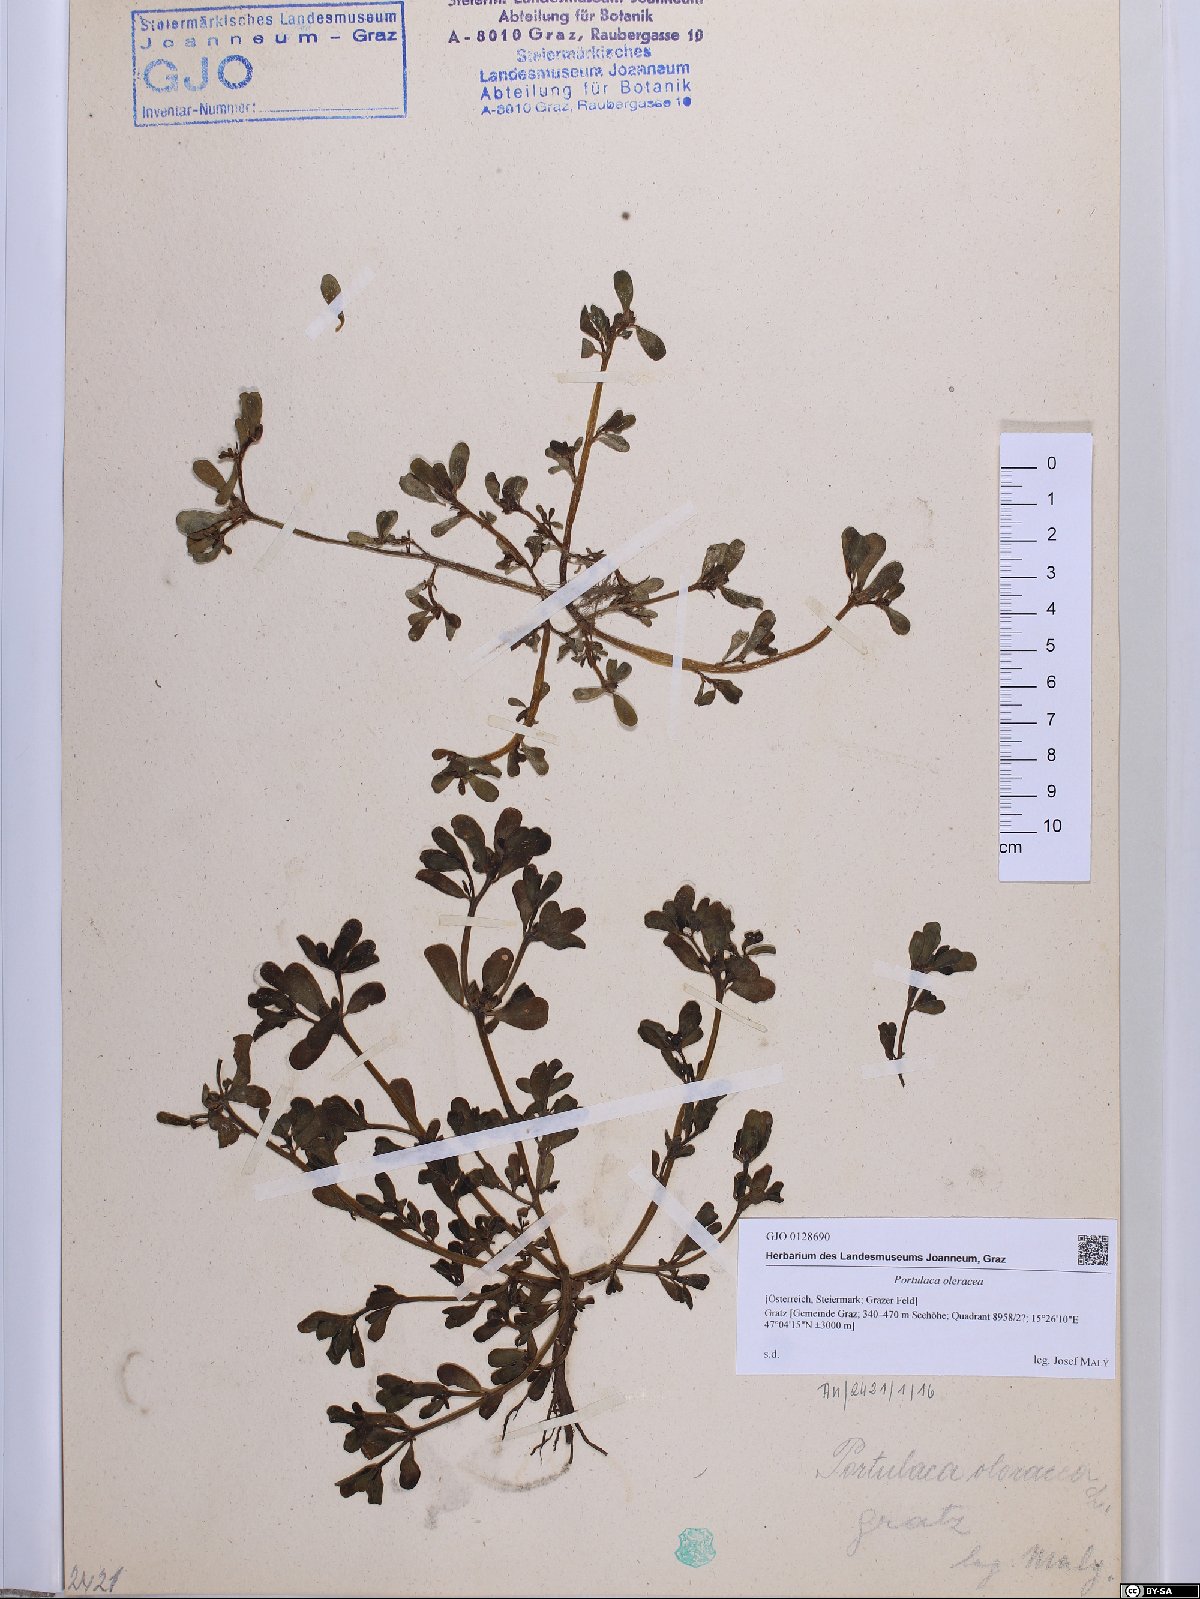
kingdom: Plantae
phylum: Tracheophyta
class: Magnoliopsida
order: Caryophyllales
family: Portulacaceae
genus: Portulaca
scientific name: Portulaca oleracea
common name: Common purslane
